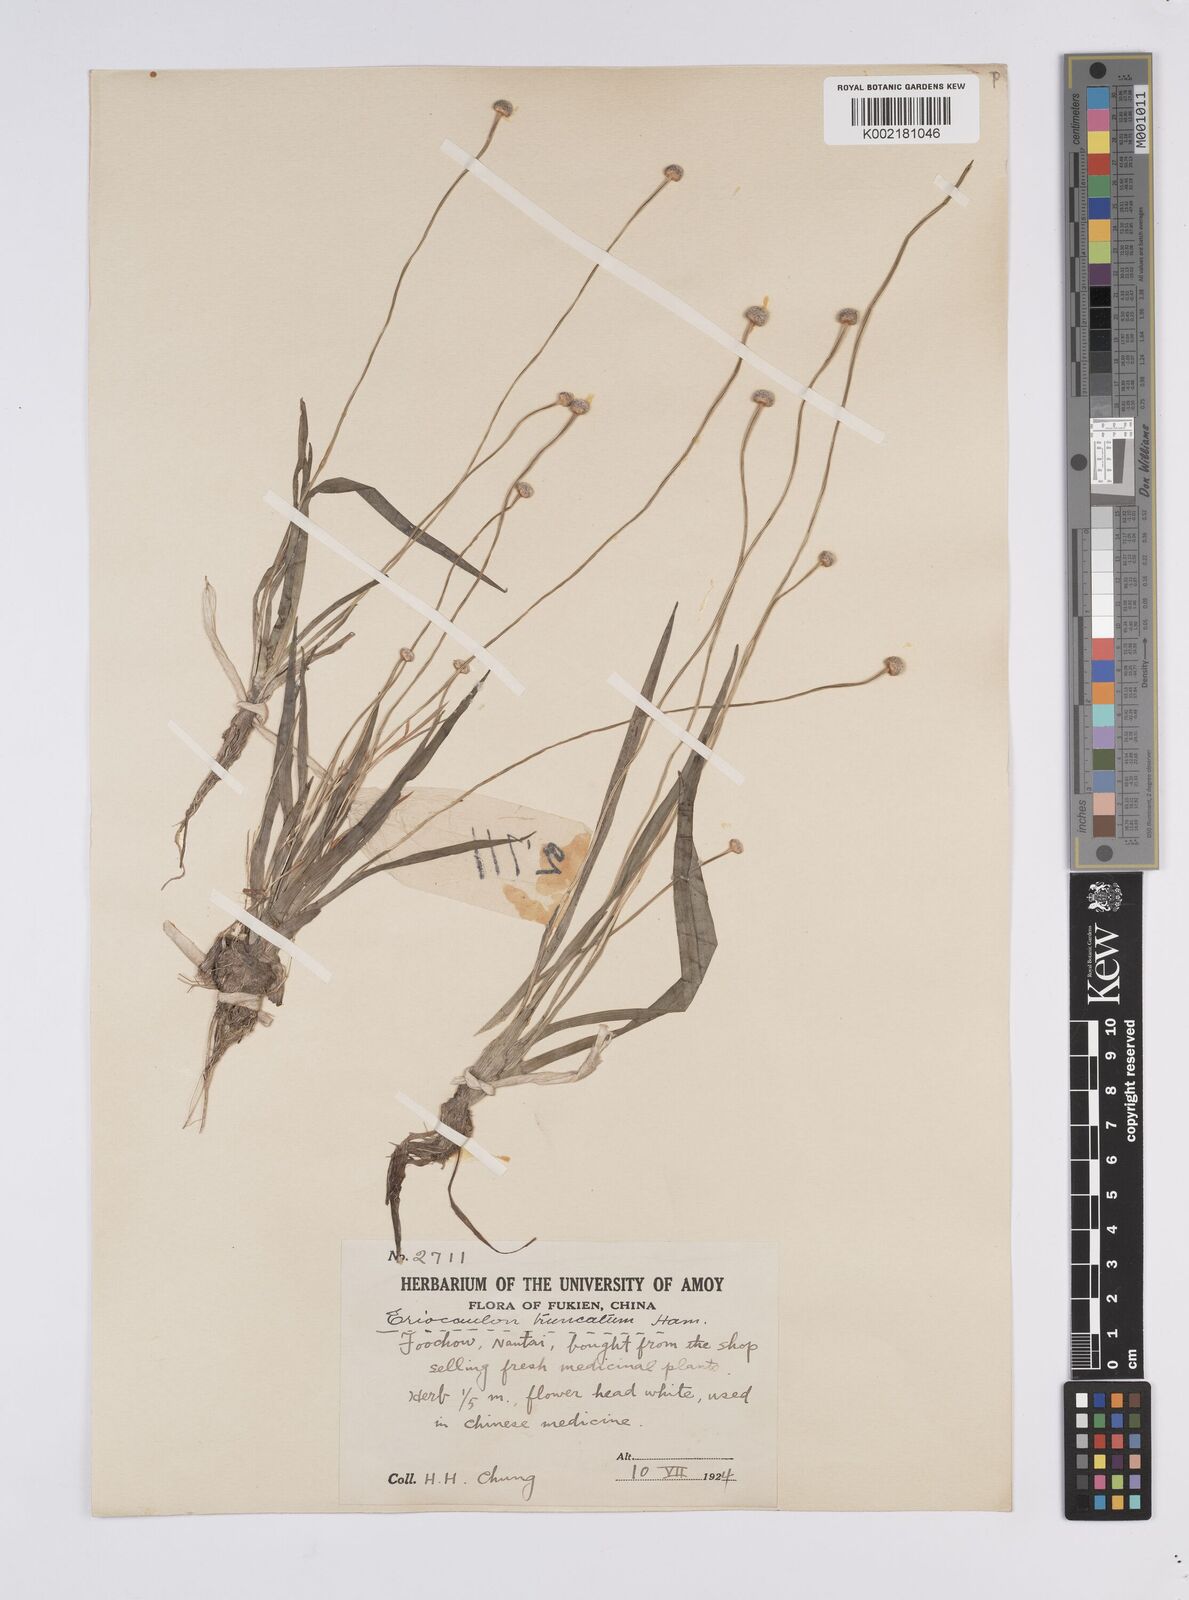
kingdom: Plantae
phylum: Tracheophyta
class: Liliopsida
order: Poales
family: Eriocaulaceae
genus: Eriocaulon
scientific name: Eriocaulon truncatum
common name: Short pipe-wort
